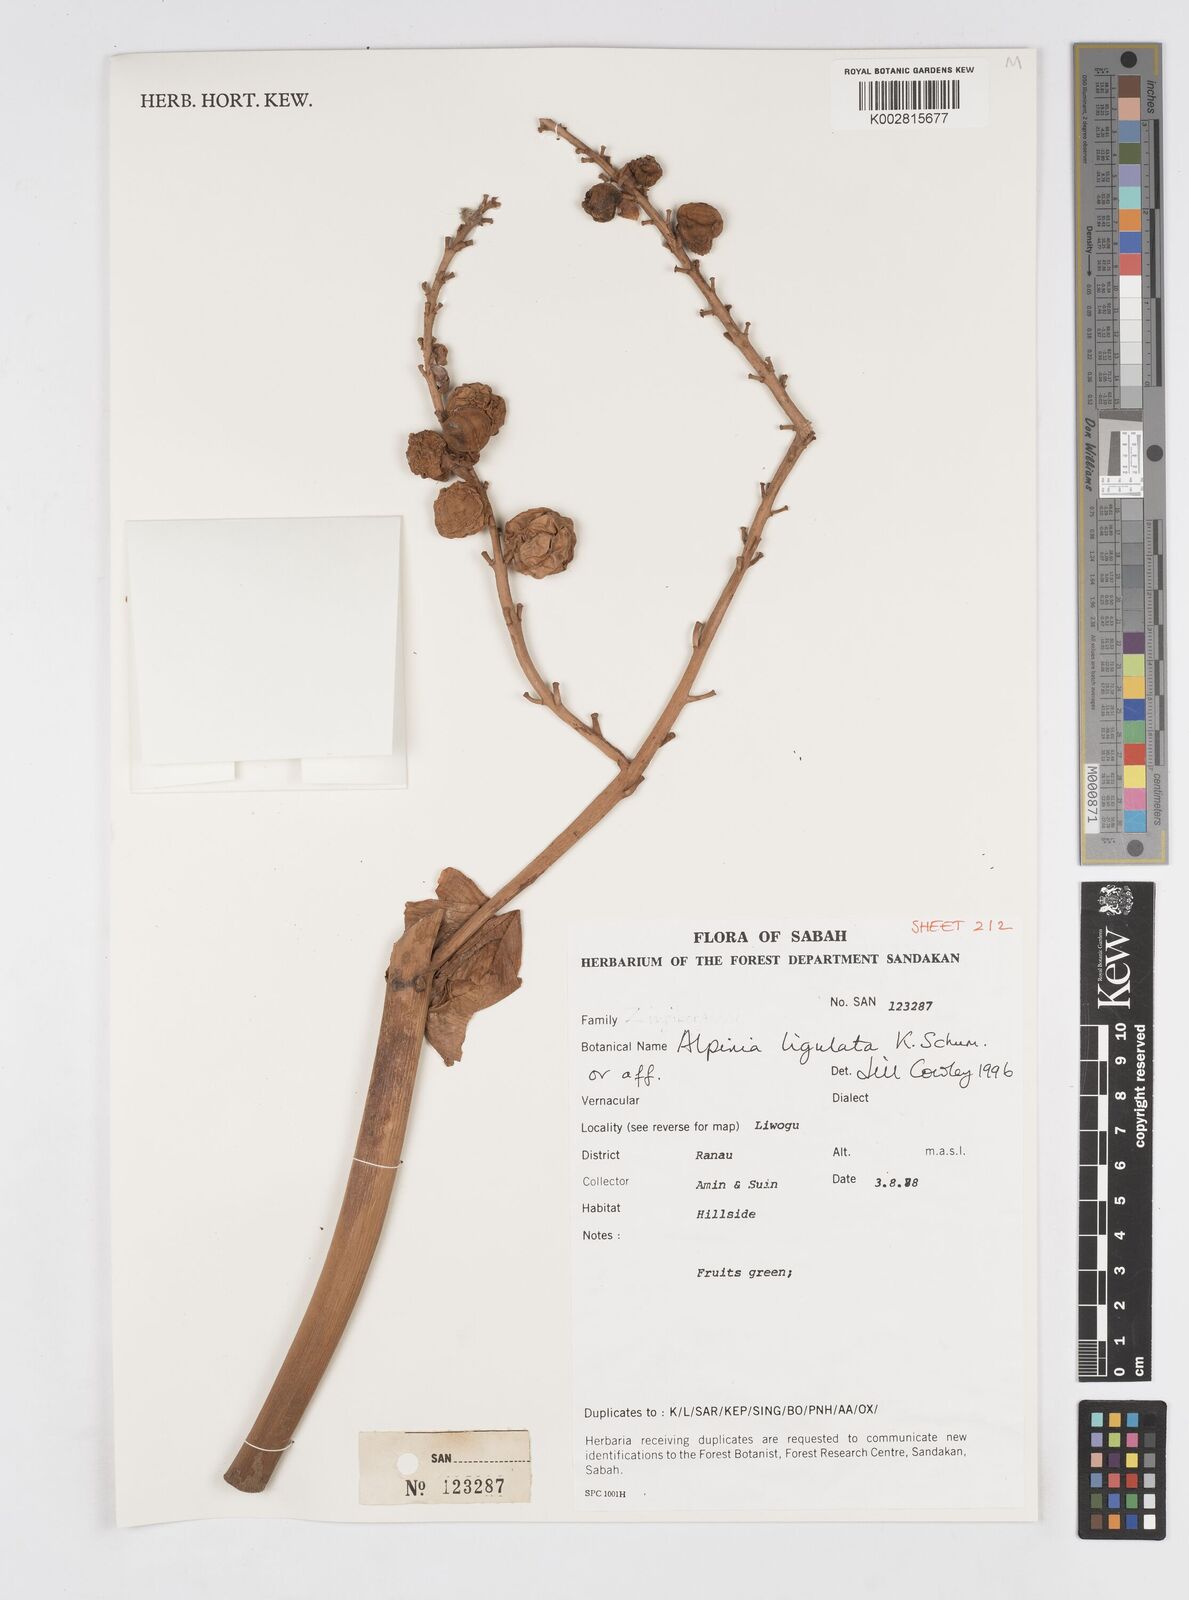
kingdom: Plantae
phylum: Tracheophyta
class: Liliopsida
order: Zingiberales
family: Zingiberaceae
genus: Alpinia
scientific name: Alpinia ligulata
